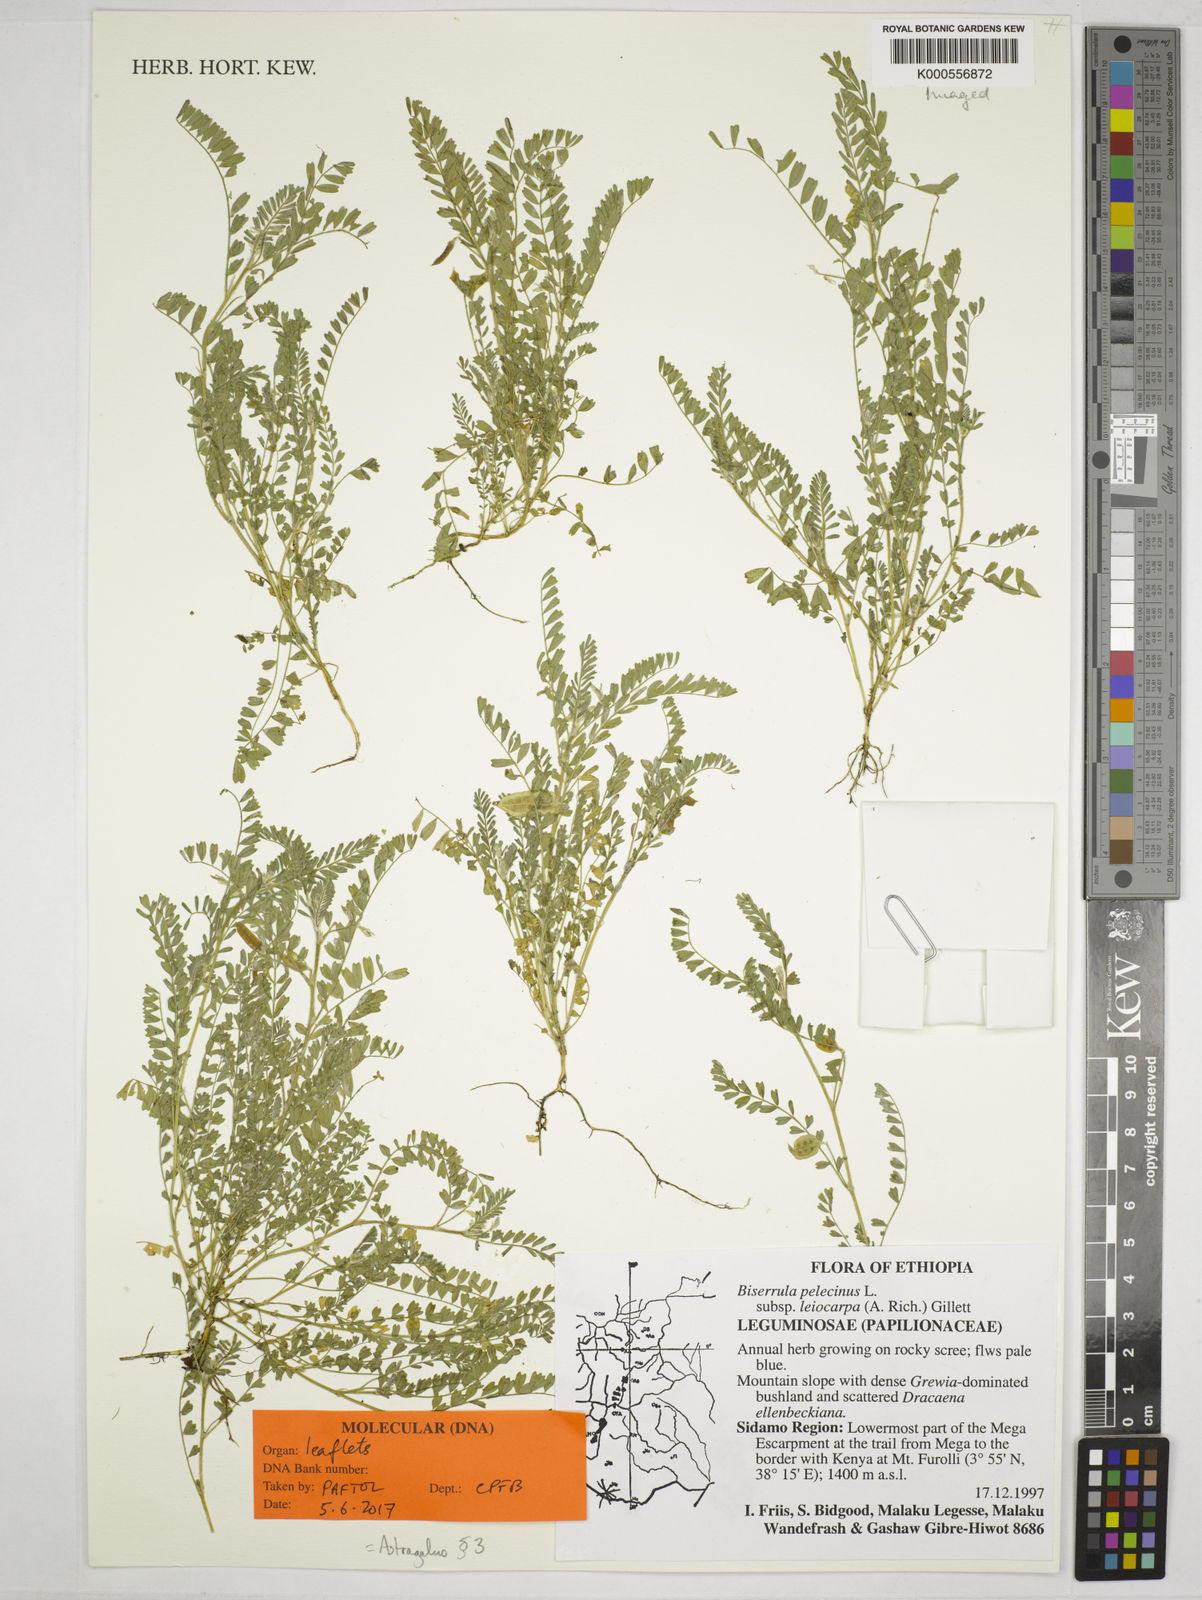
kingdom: Plantae
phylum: Tracheophyta
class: Magnoliopsida
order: Fabales
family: Fabaceae
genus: Biserrula
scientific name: Biserrula pelecinus
